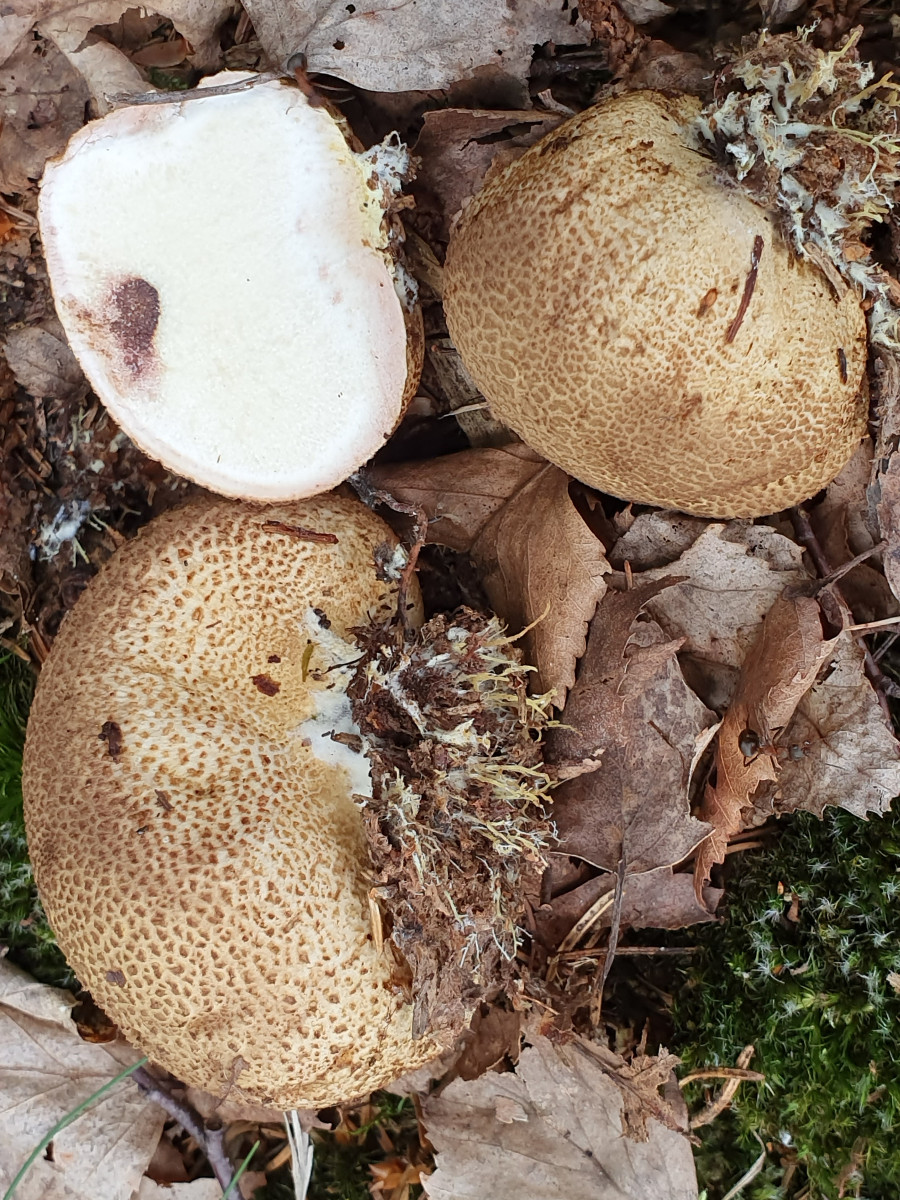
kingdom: Fungi
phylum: Basidiomycota
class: Agaricomycetes
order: Boletales
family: Sclerodermataceae
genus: Scleroderma
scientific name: Scleroderma citrinum
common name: almindelig bruskbold
